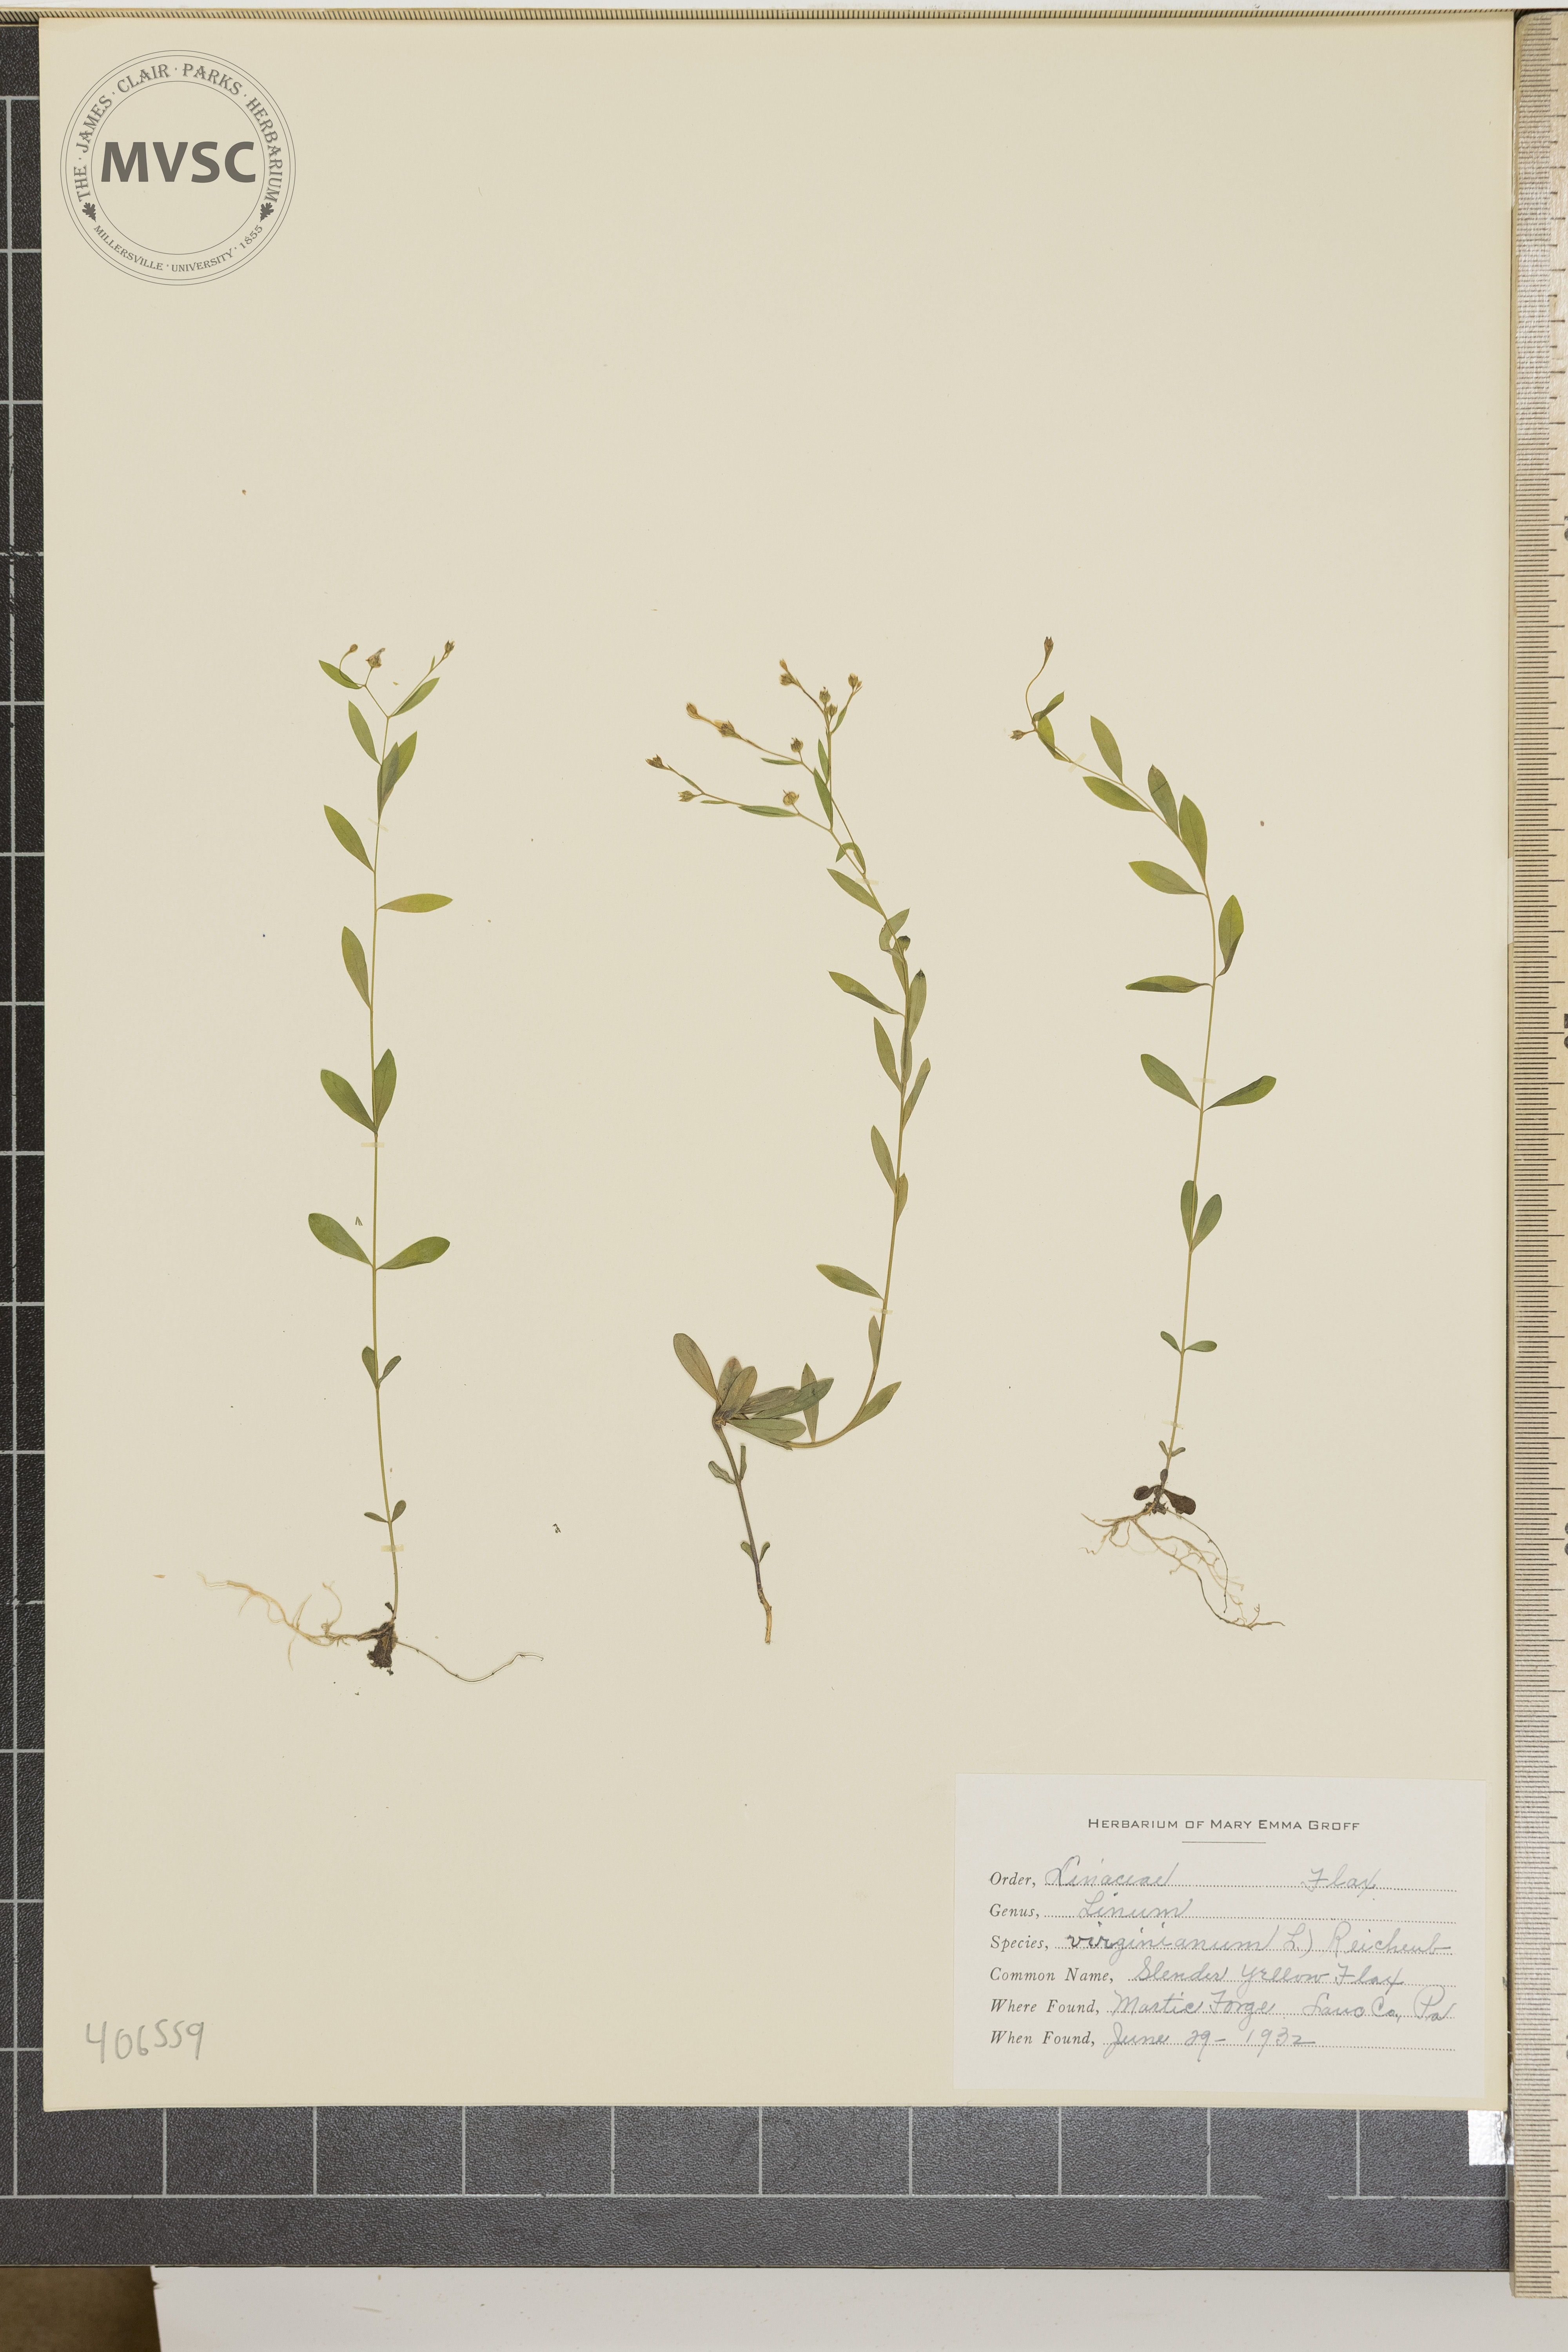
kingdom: Plantae
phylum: Tracheophyta
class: Magnoliopsida
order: Malpighiales
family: Linaceae
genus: Linum
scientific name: Linum virginianum
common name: Slender Yellow Flax
